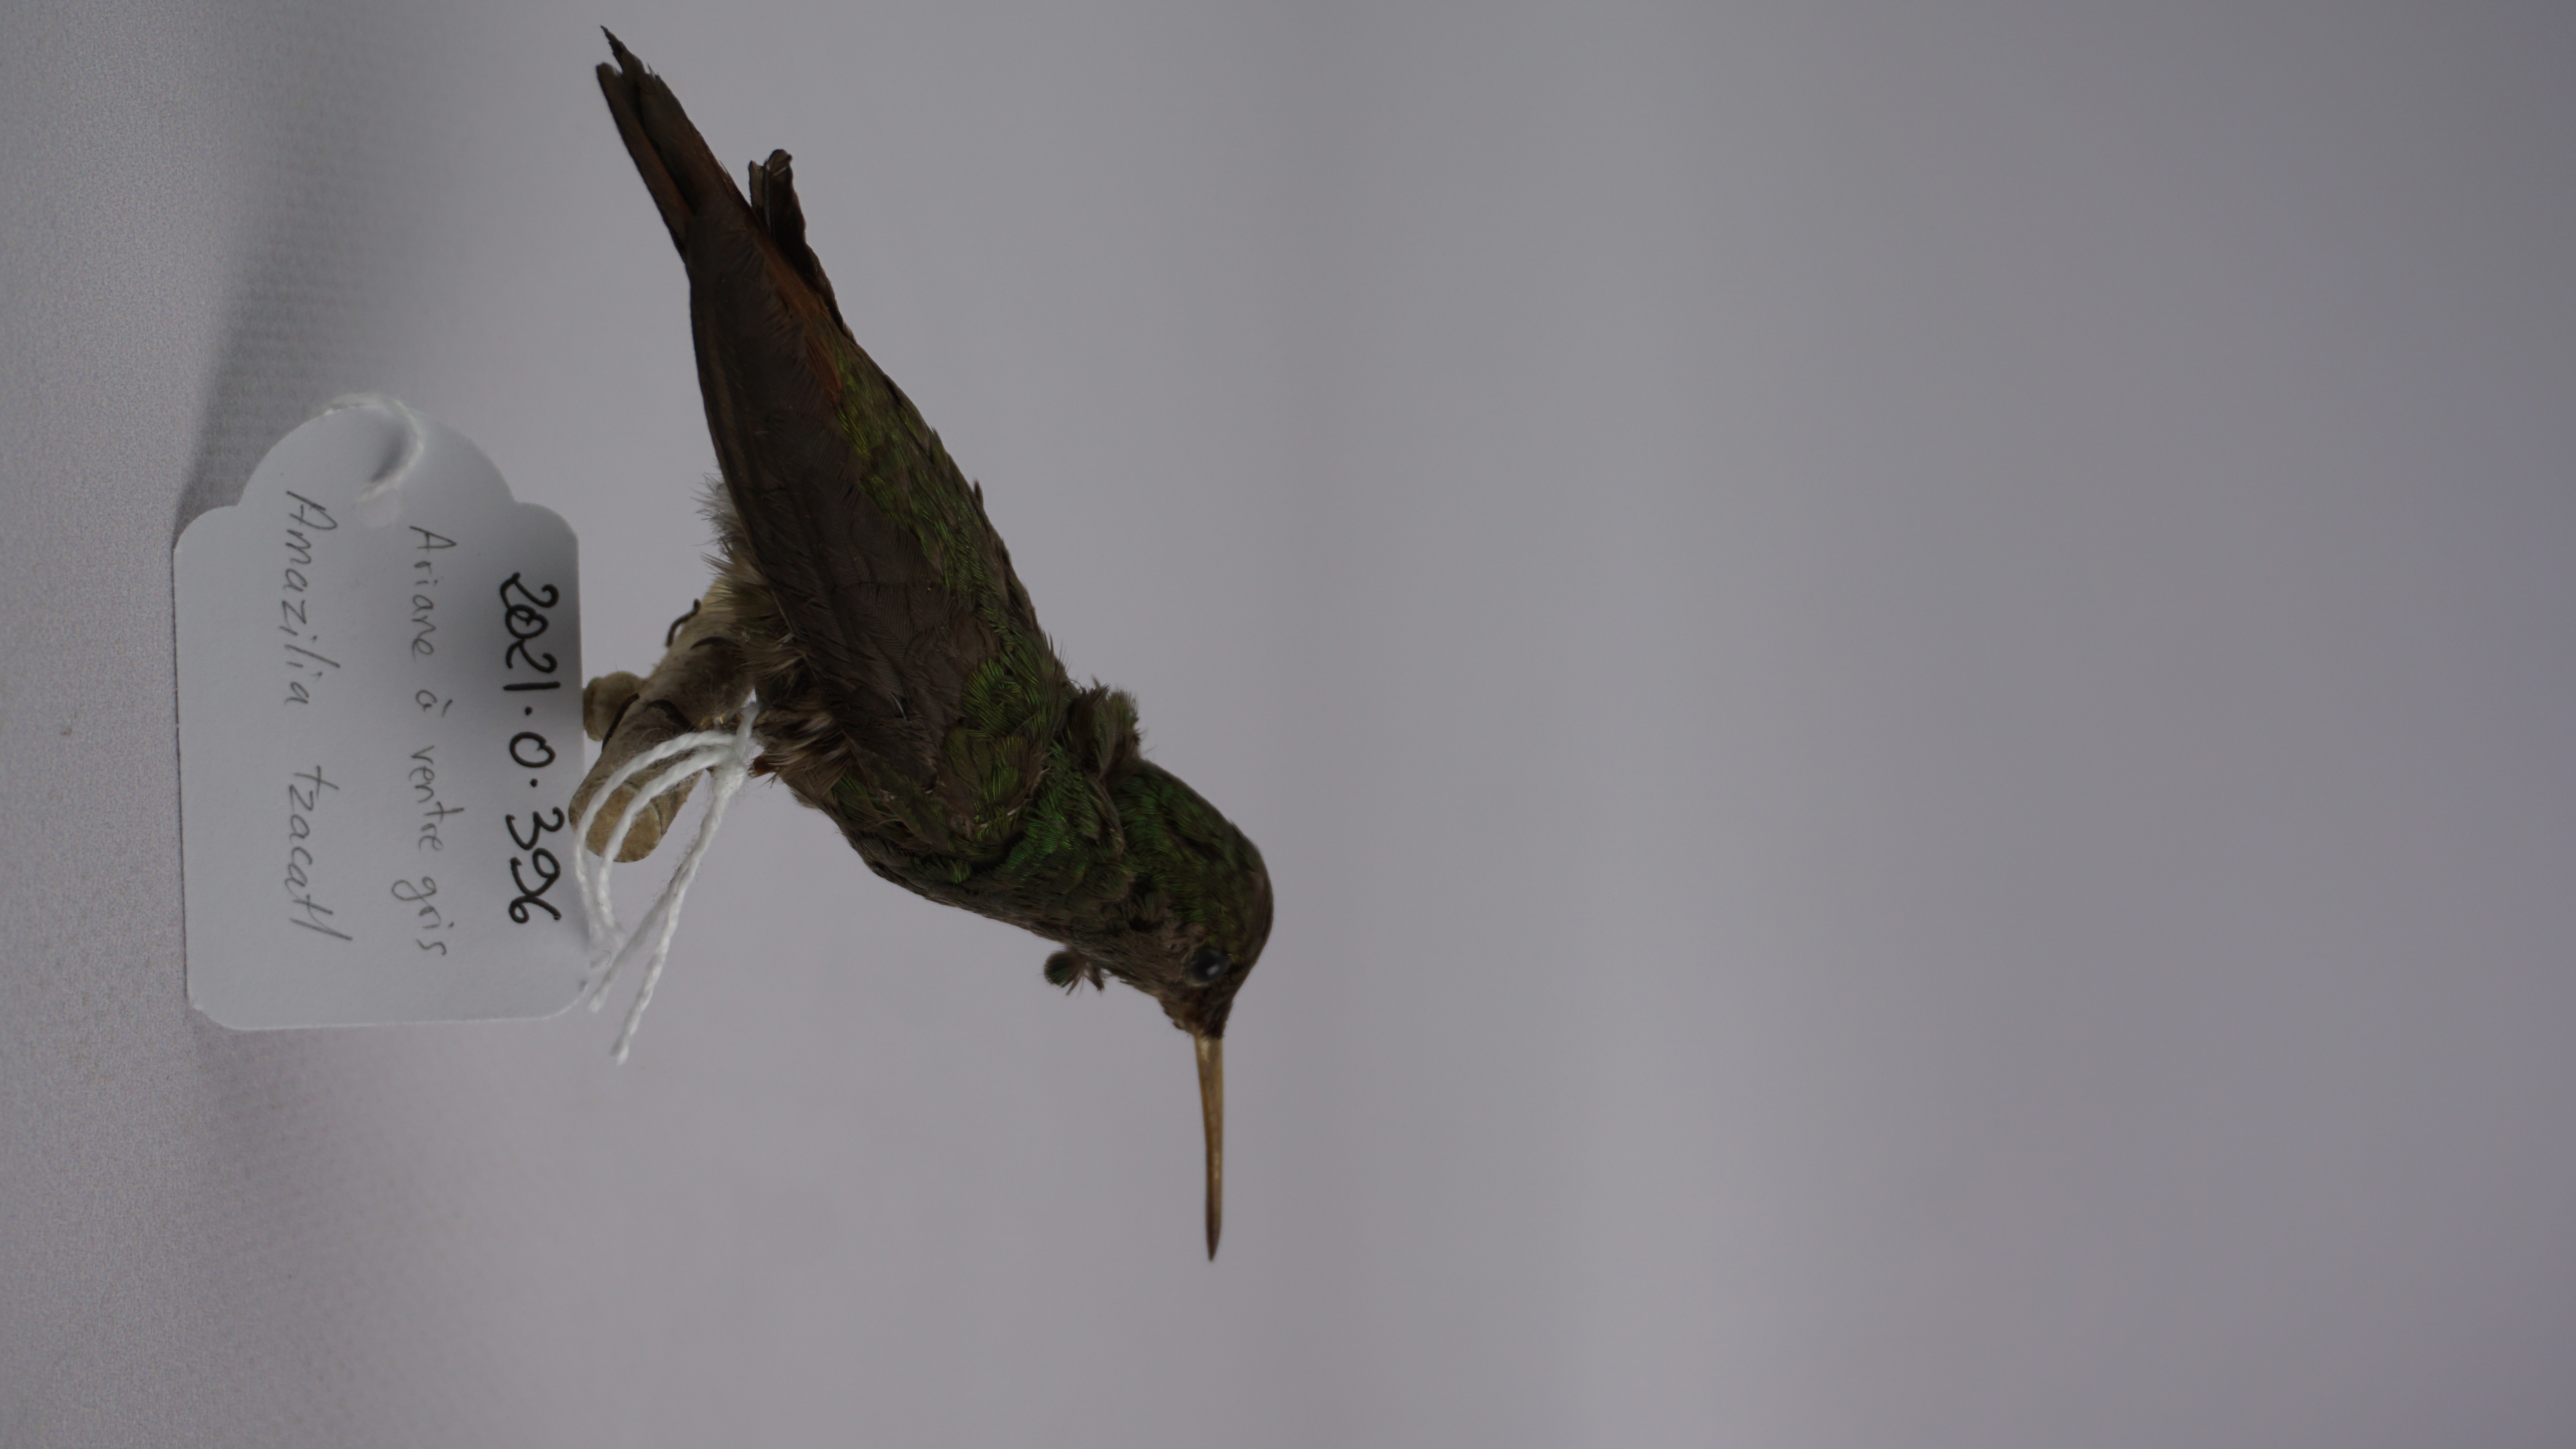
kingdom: Animalia
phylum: Chordata
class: Aves
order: Apodiformes
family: Trochilidae
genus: Amazilia
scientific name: Amazilia tzacatl
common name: Rufous-tailed hummingbird
